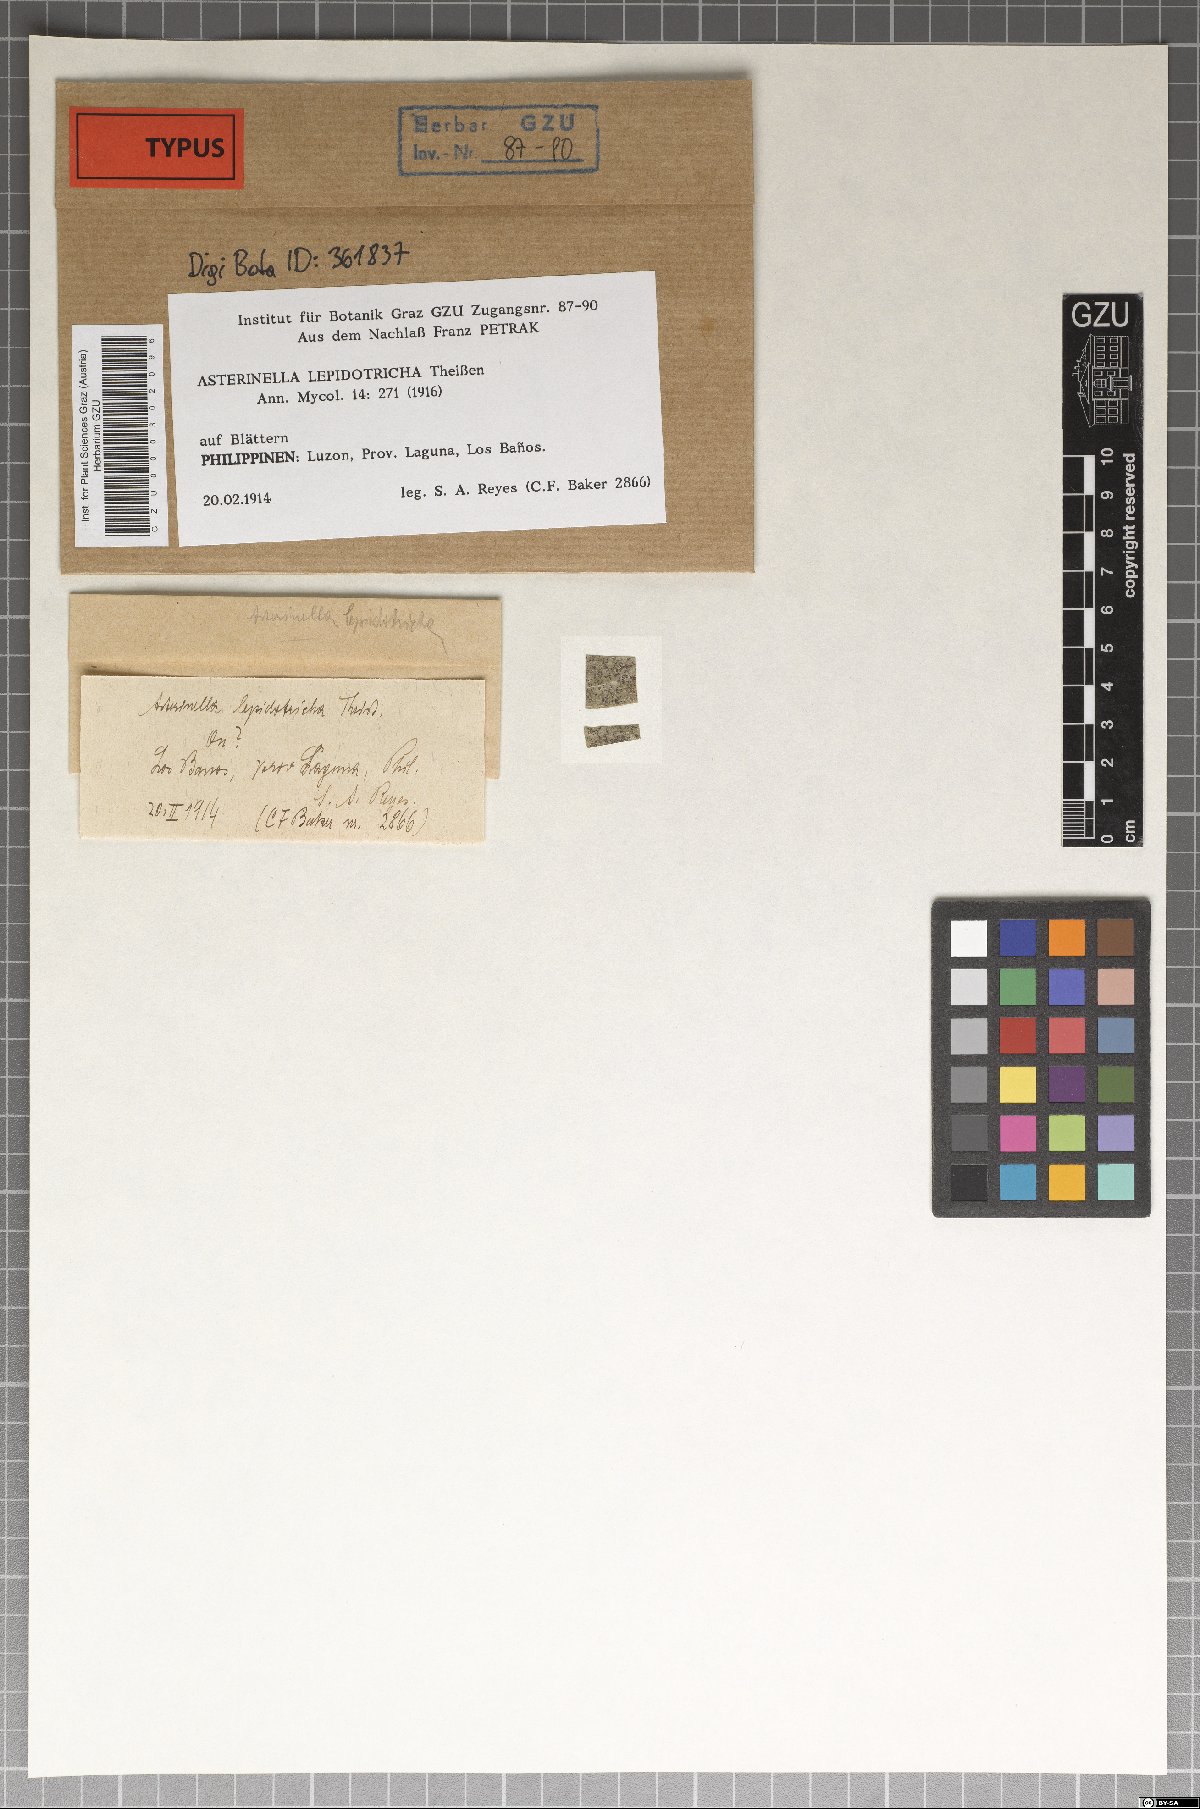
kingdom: Fungi
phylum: Ascomycota
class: Dothideomycetes
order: Asterinales
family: Asterinaceae
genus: Prillieuxina
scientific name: Prillieuxina lepidotricha
